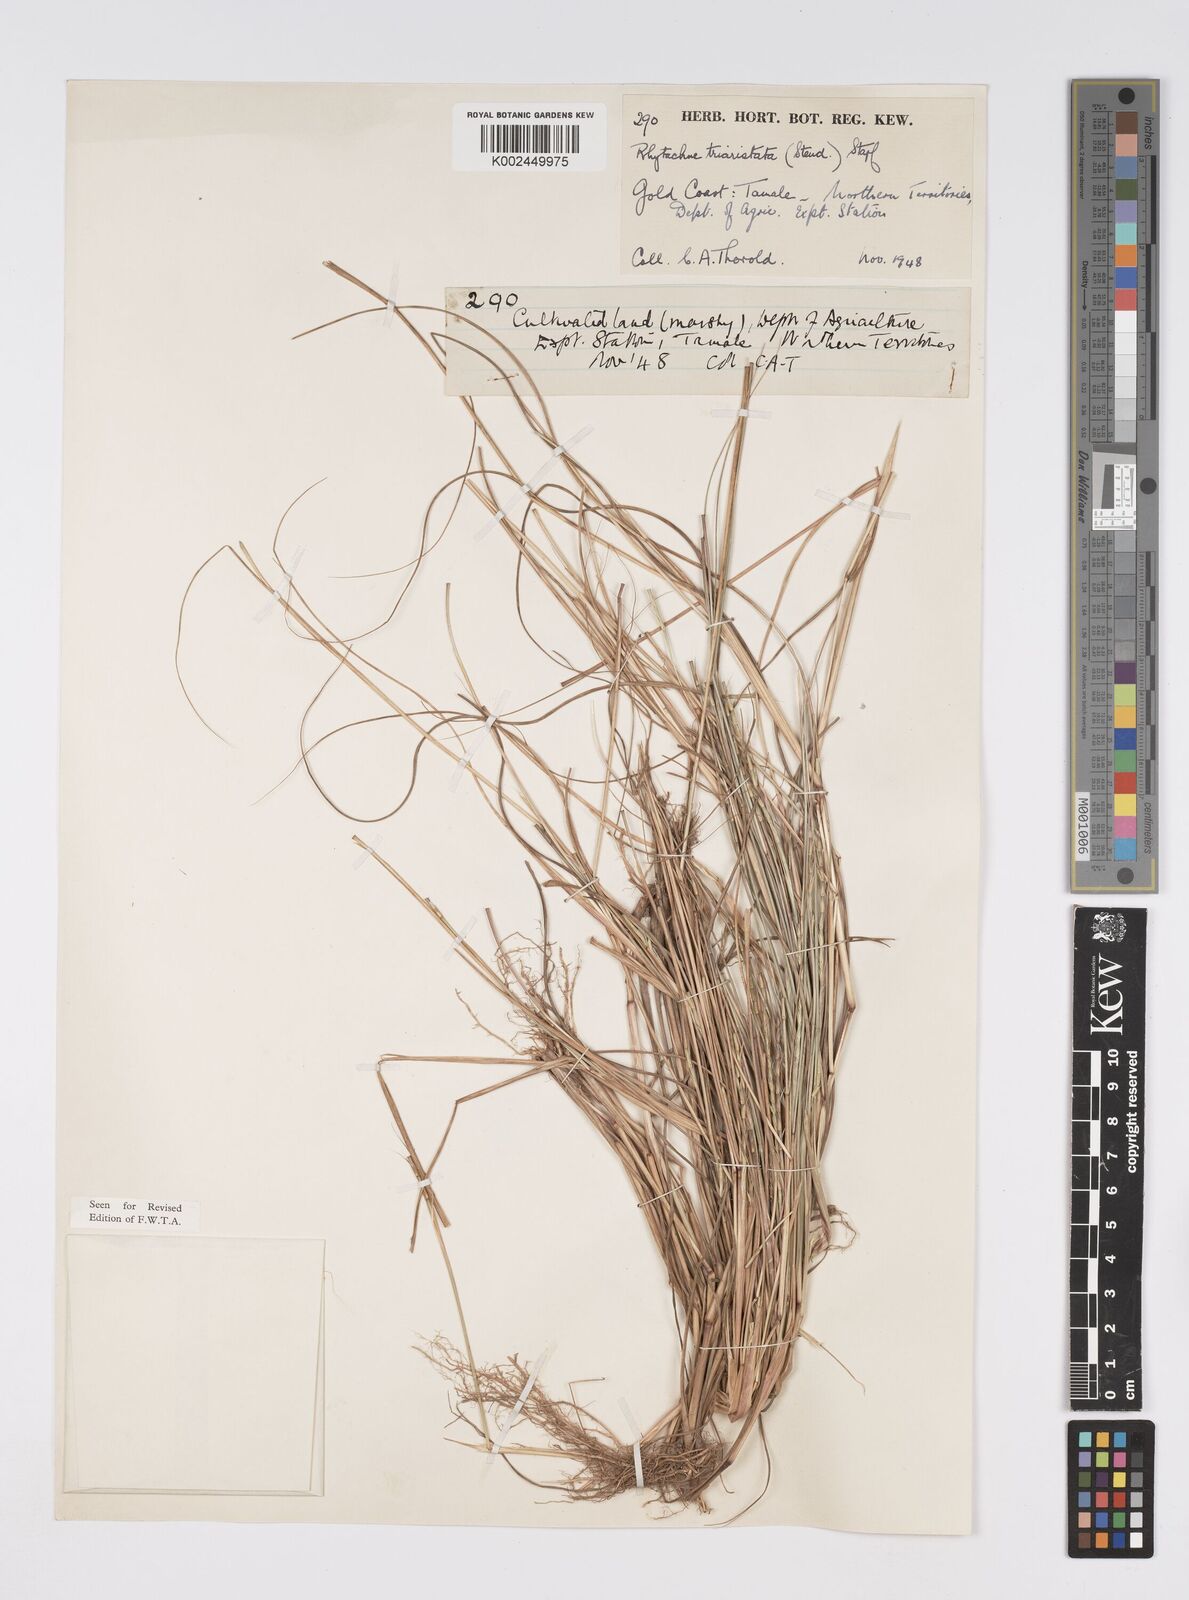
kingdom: Plantae
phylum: Tracheophyta
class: Liliopsida
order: Poales
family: Poaceae
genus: Rhytachne
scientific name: Rhytachne triaristata
